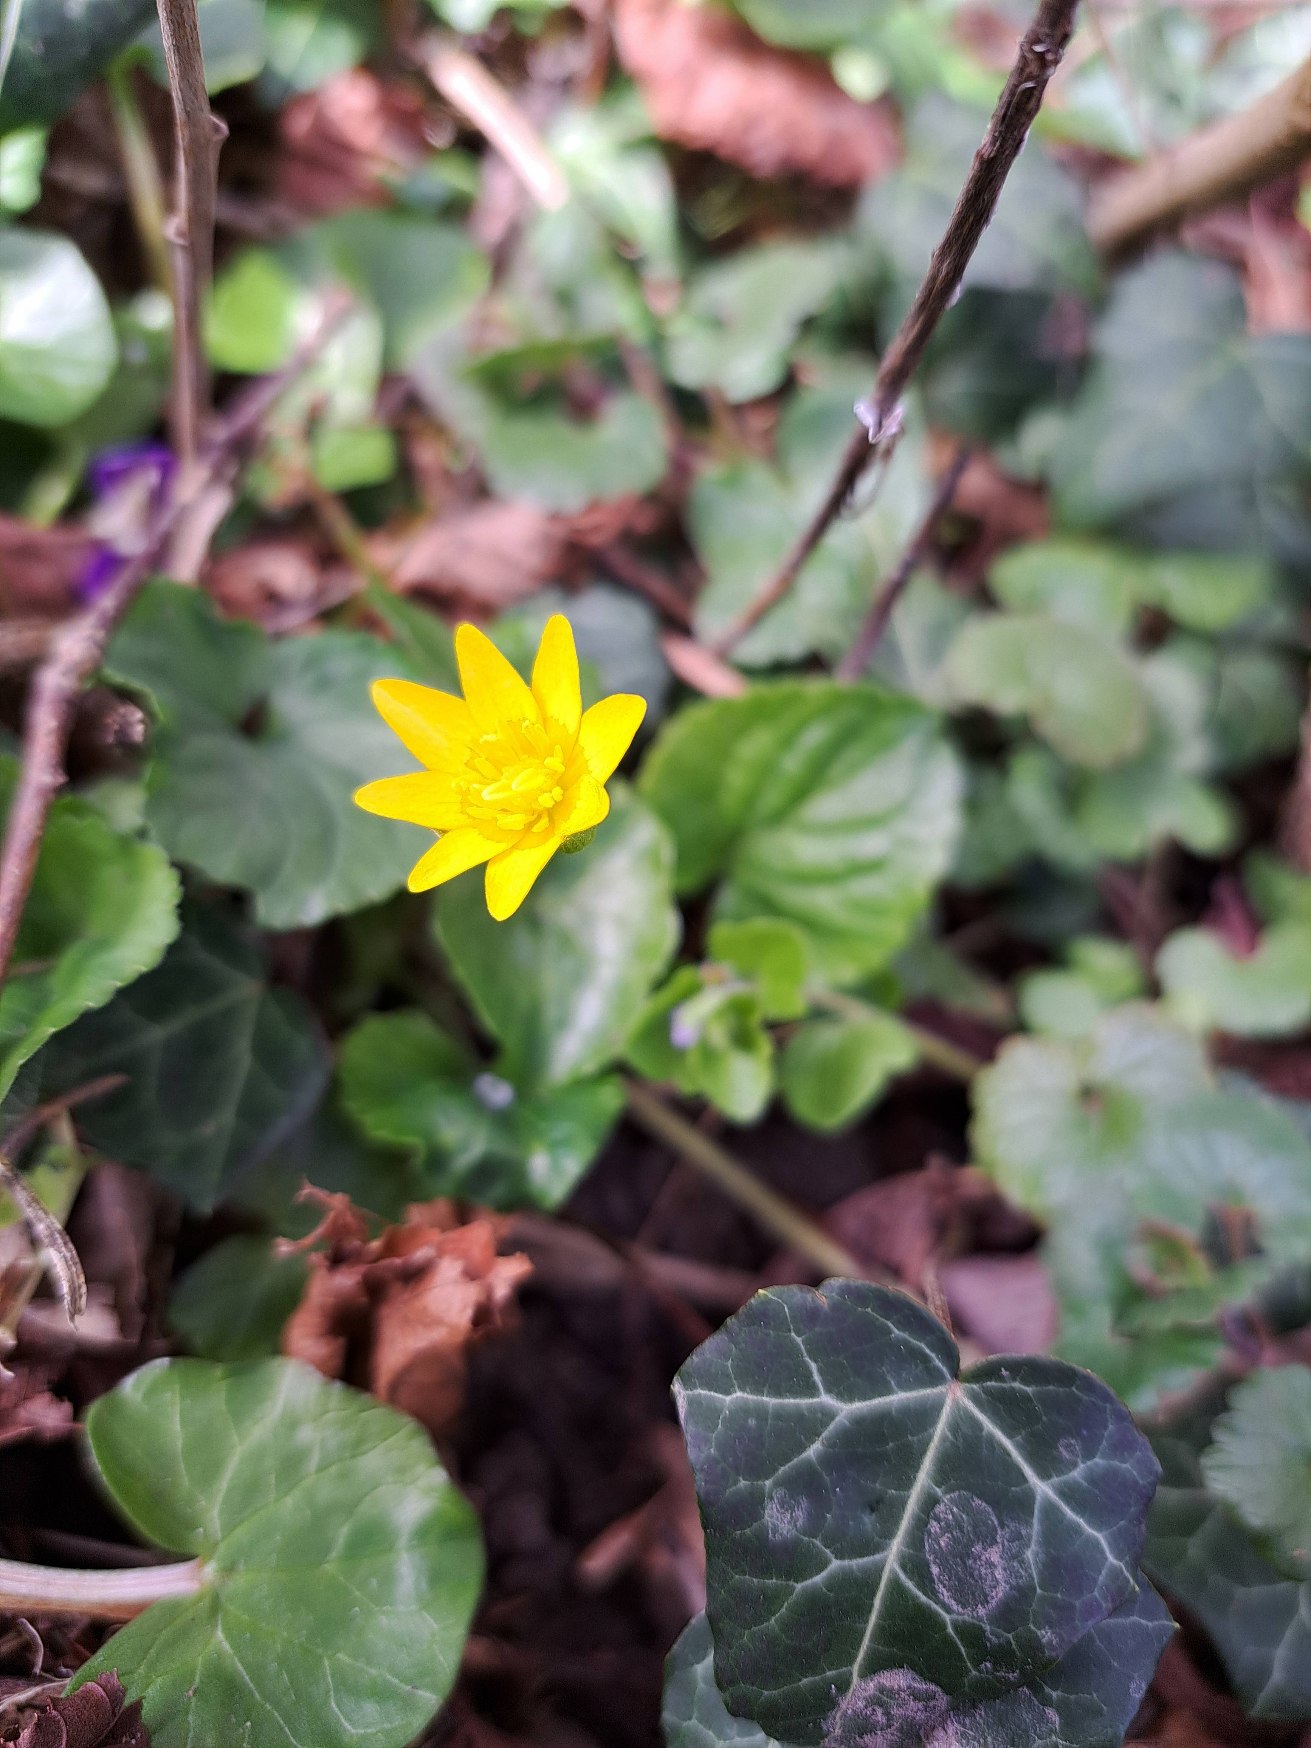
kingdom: Plantae
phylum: Tracheophyta
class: Magnoliopsida
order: Ranunculales
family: Ranunculaceae
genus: Ficaria
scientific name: Ficaria verna
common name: Vorterod
